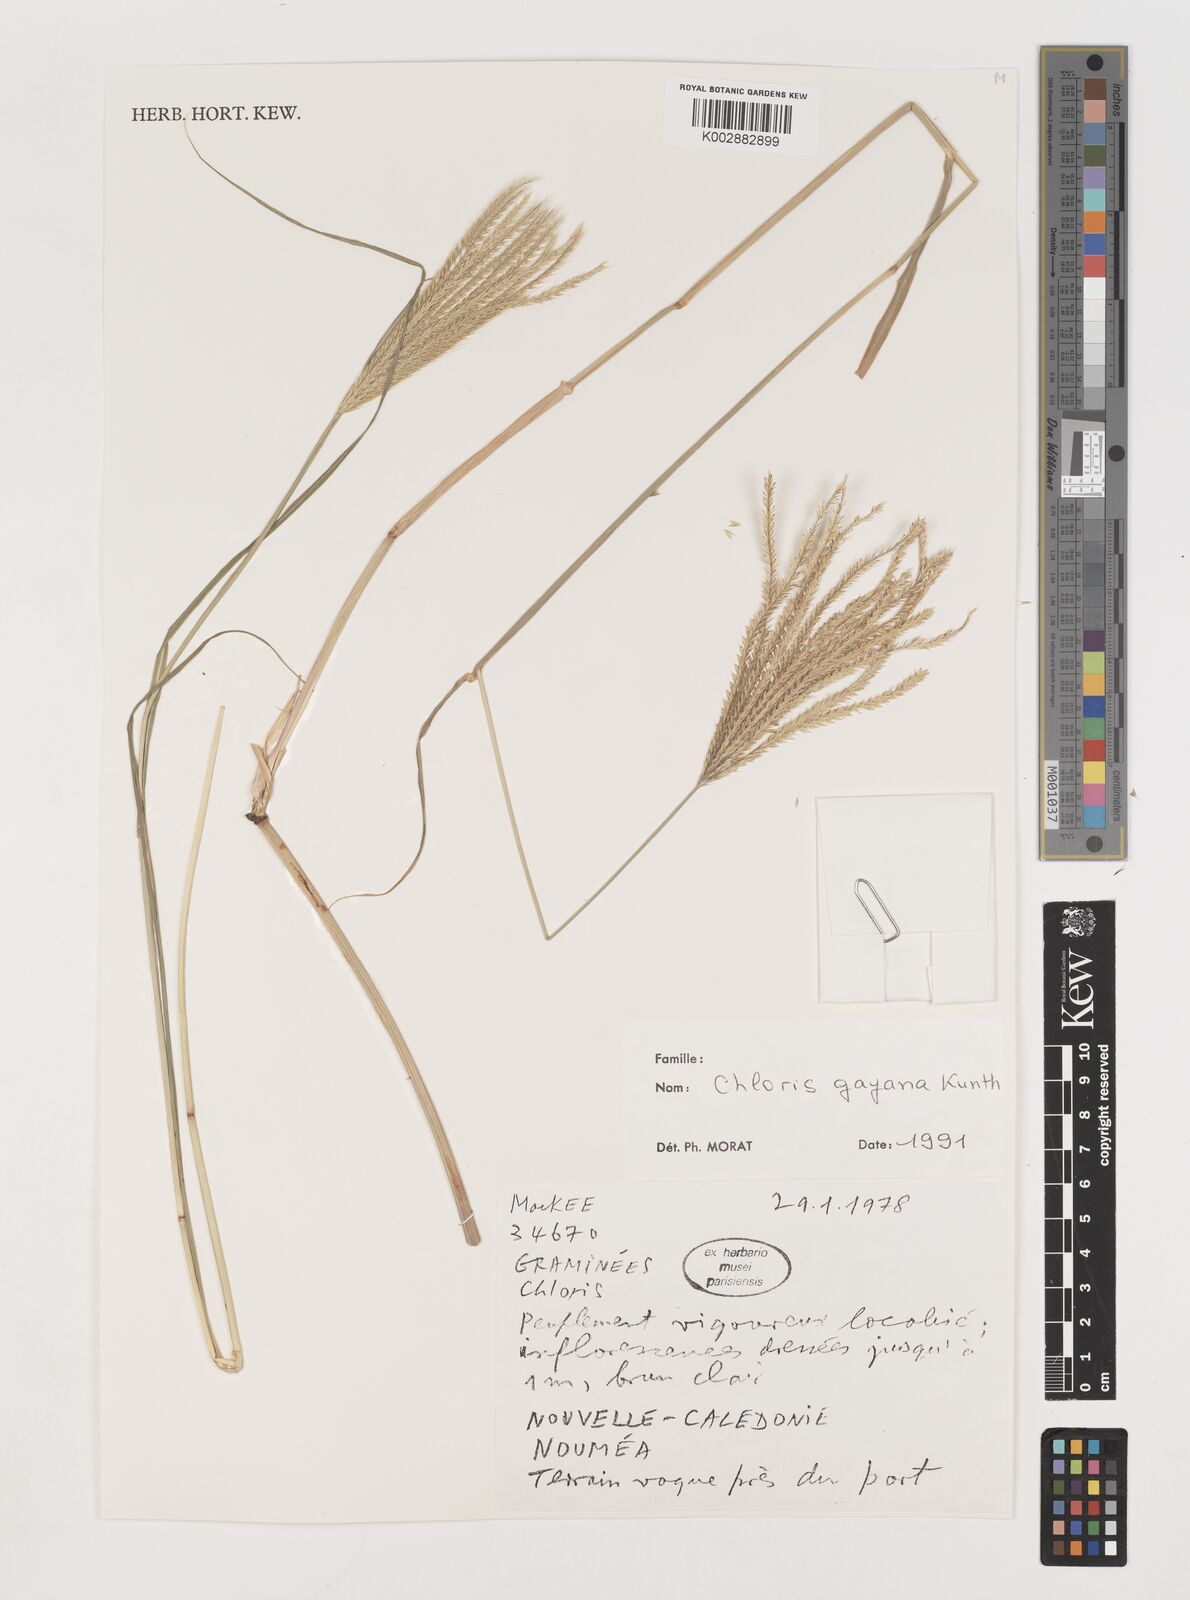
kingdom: Plantae
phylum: Tracheophyta
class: Liliopsida
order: Poales
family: Poaceae
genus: Chloris
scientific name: Chloris gayana
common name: Rhodes grass
